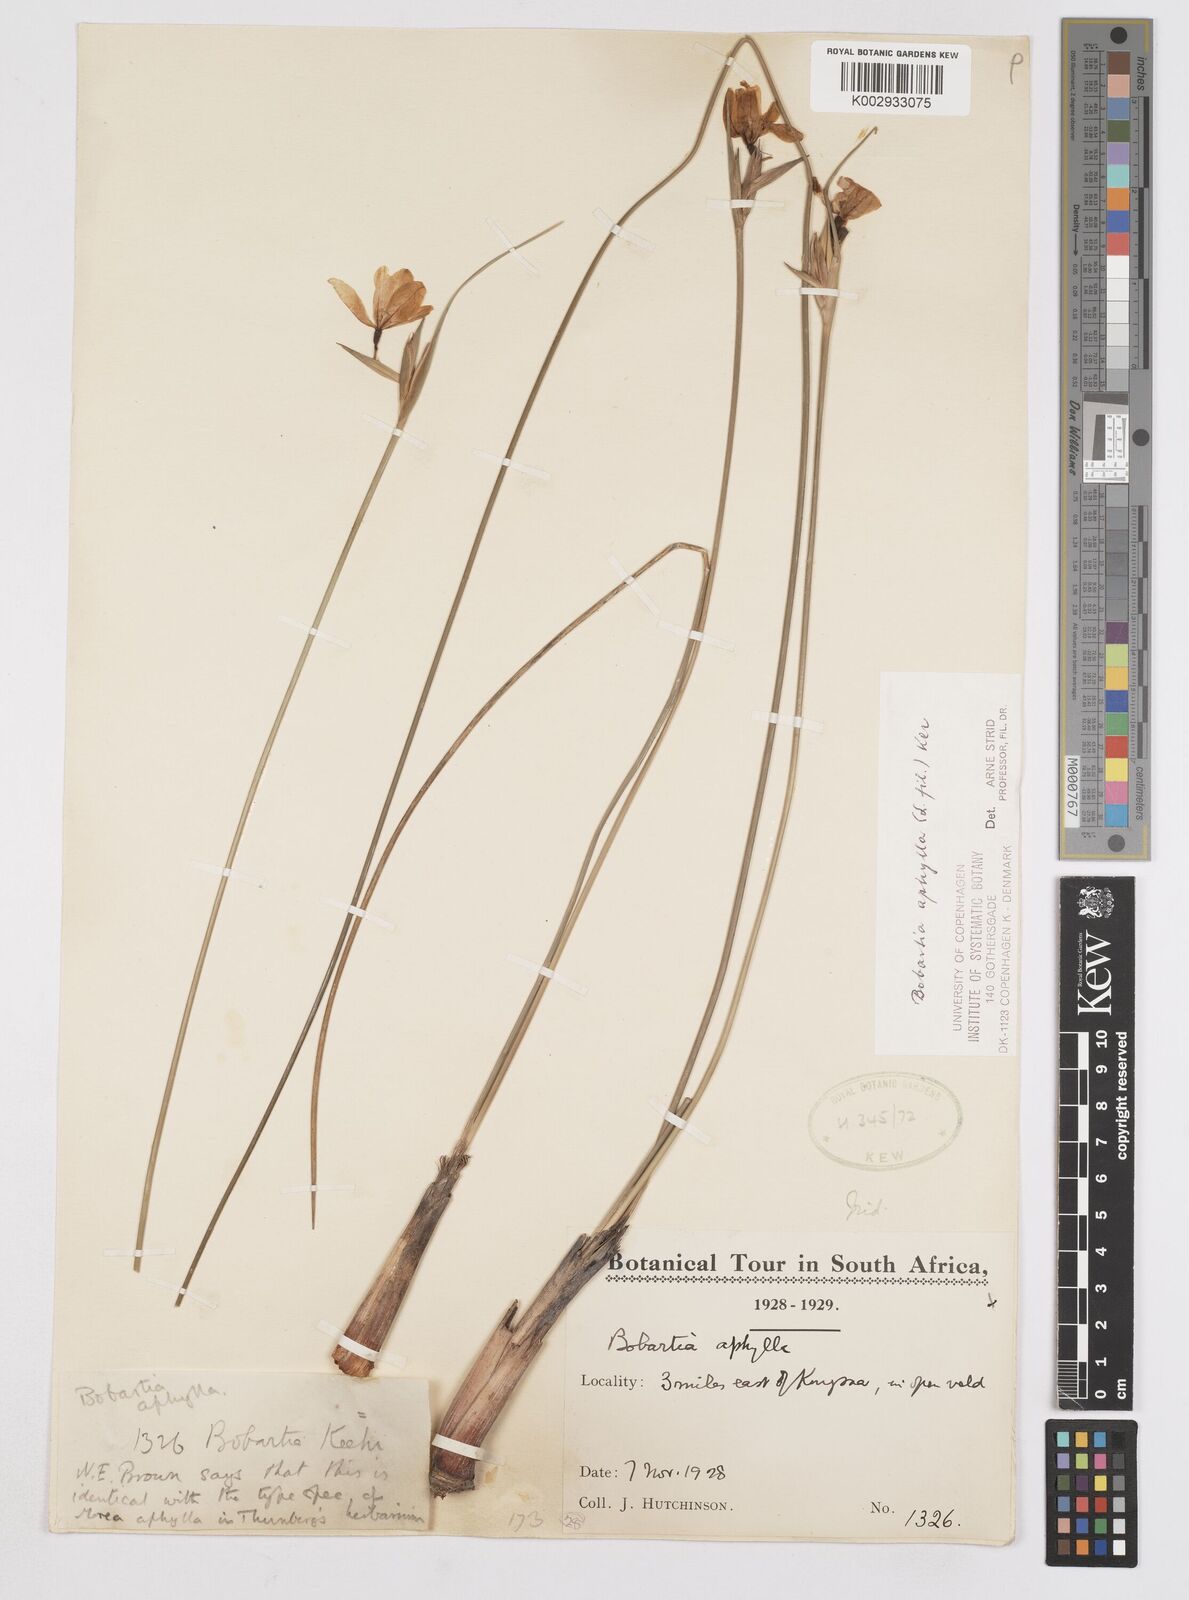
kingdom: Plantae
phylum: Tracheophyta
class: Liliopsida
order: Asparagales
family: Iridaceae
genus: Bobartia
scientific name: Bobartia aphylla
